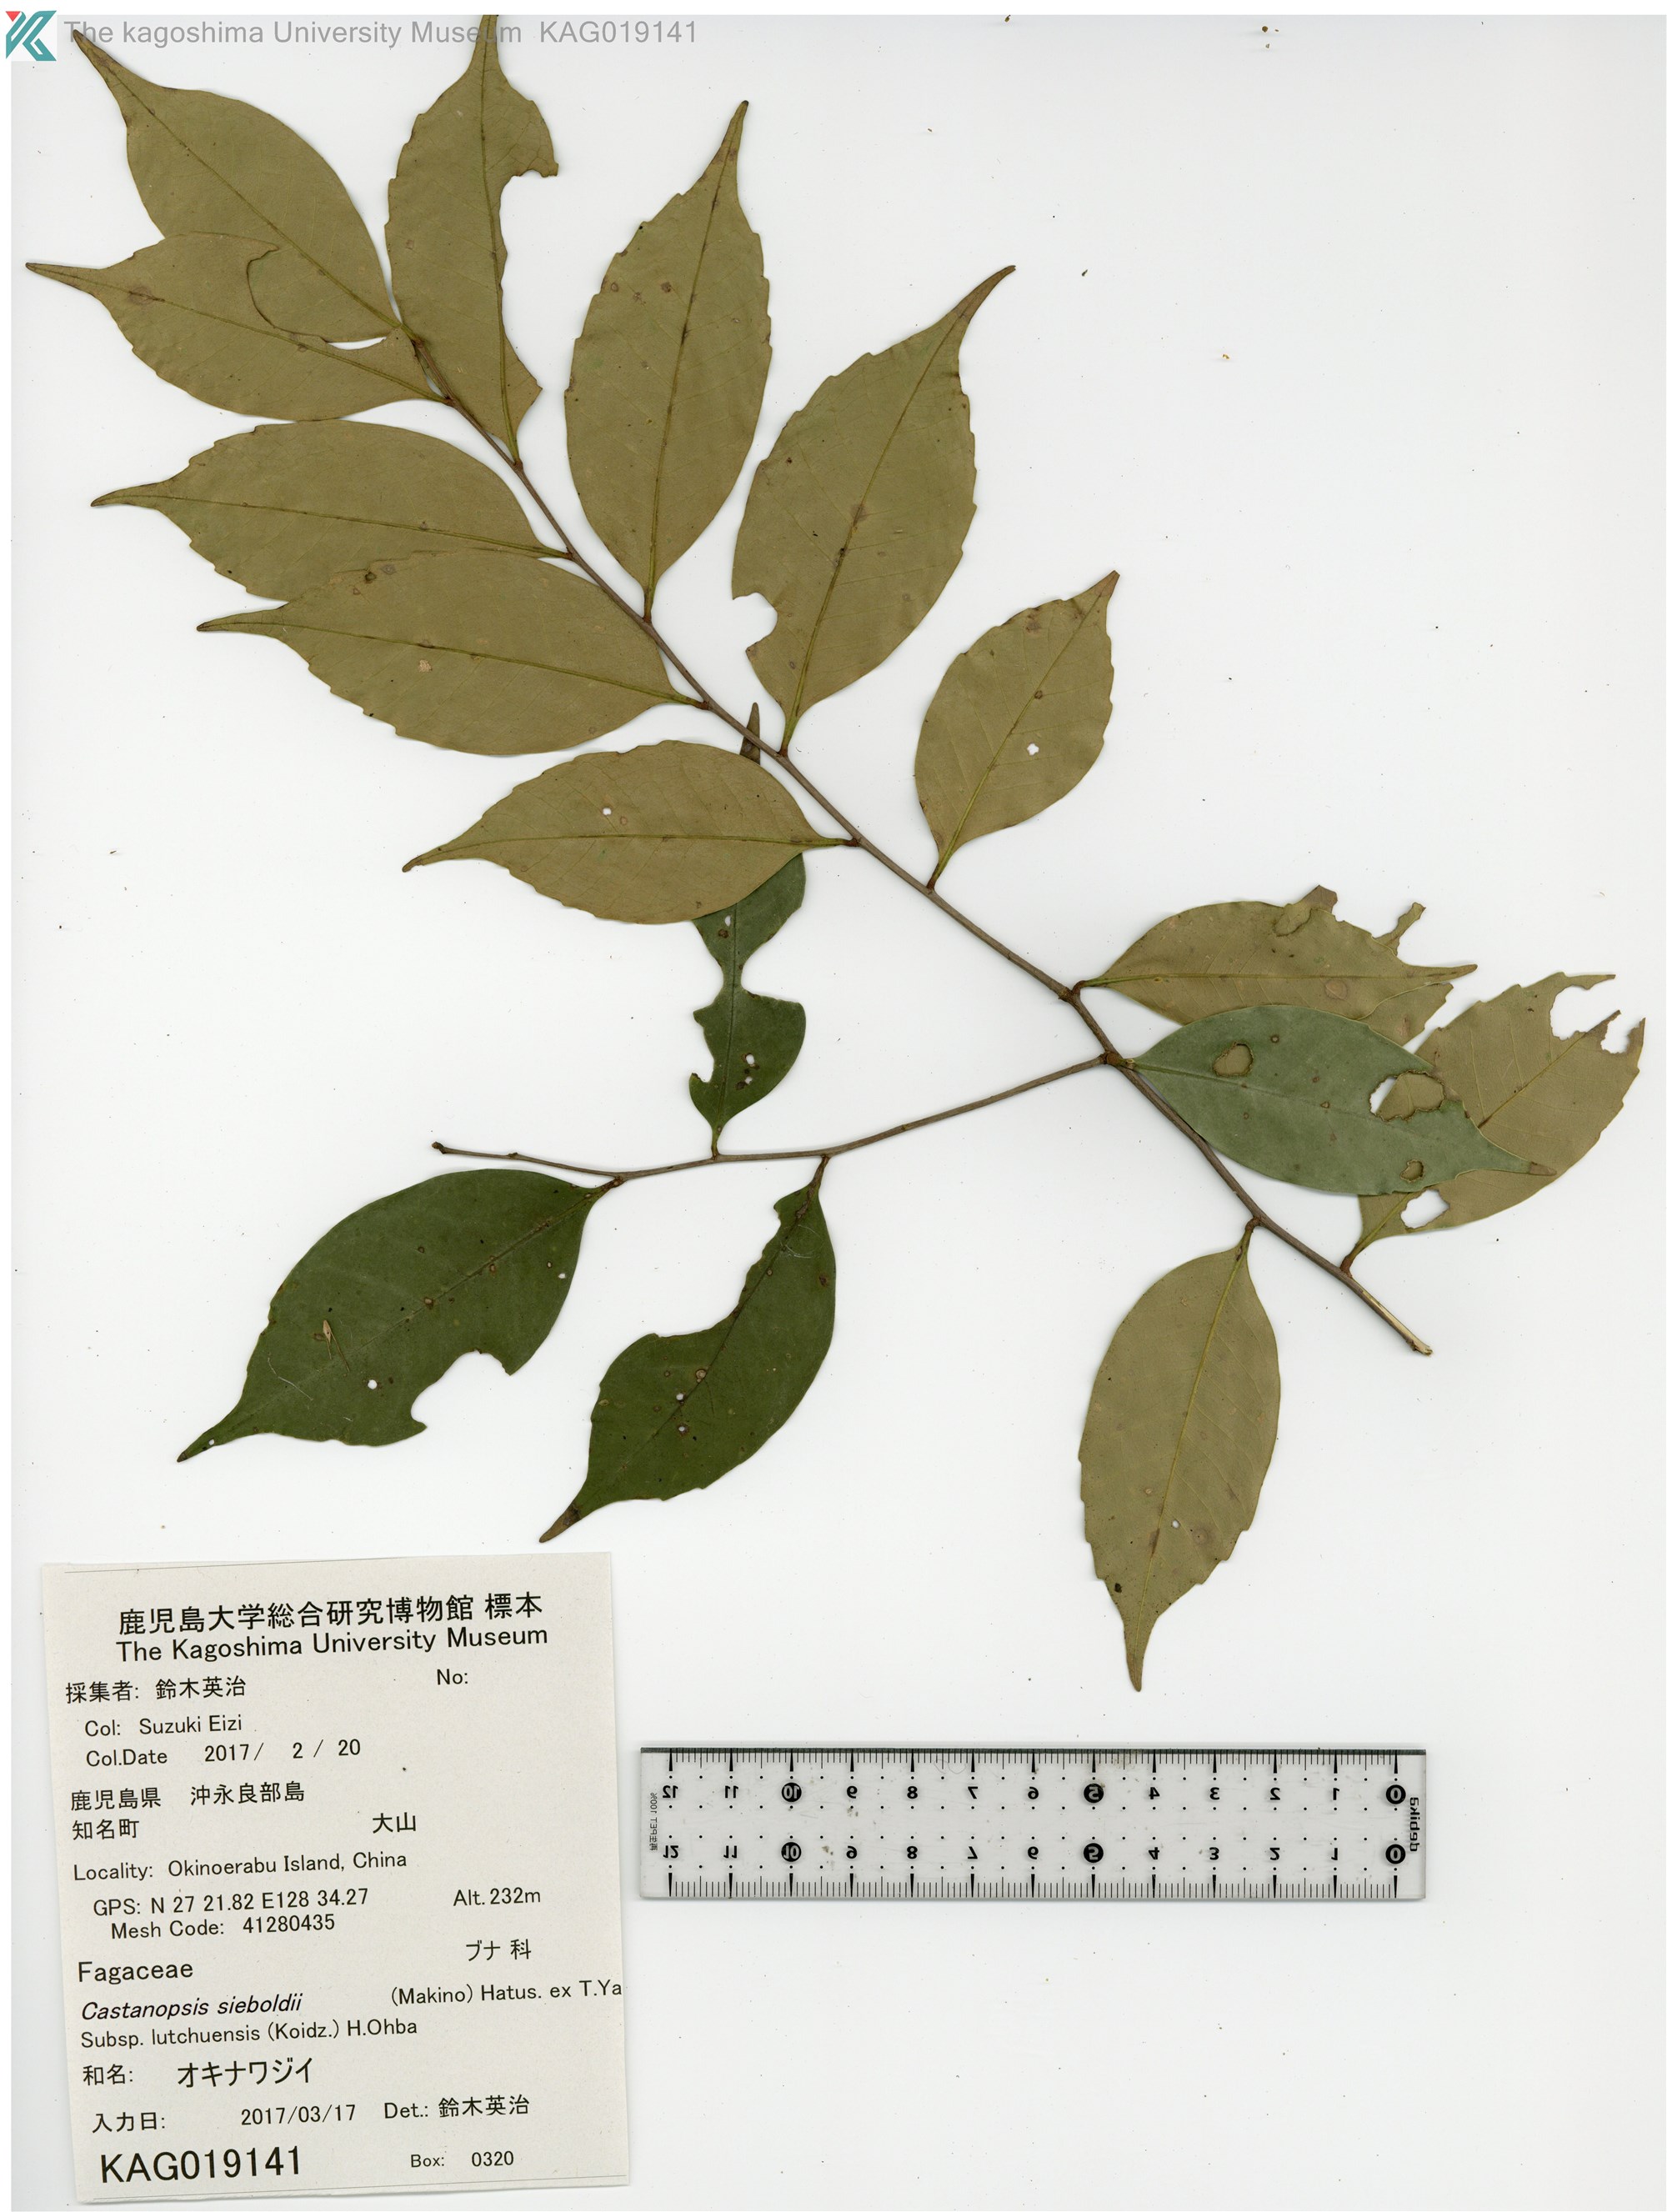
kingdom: Plantae
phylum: Tracheophyta
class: Magnoliopsida
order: Fagales
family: Fagaceae
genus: Castanopsis
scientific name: Castanopsis sieboldii
